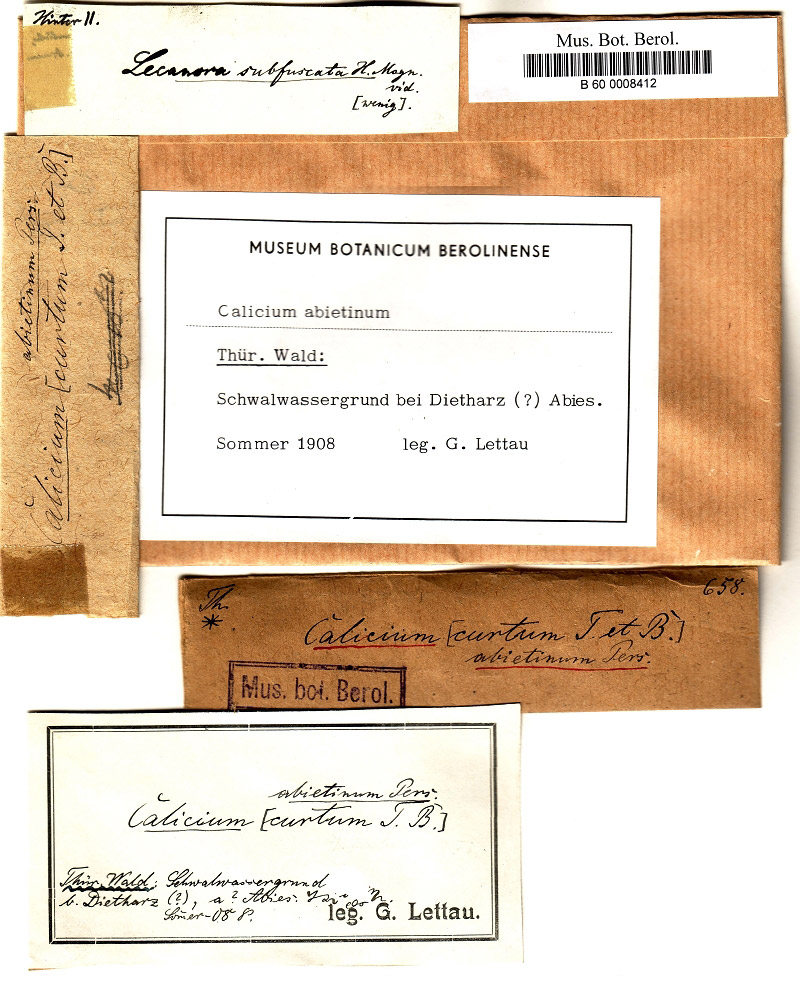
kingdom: Fungi
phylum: Ascomycota
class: Lecanoromycetes
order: Caliciales
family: Caliciaceae
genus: Calicium
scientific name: Calicium abietinum
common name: Black stubble lichen
